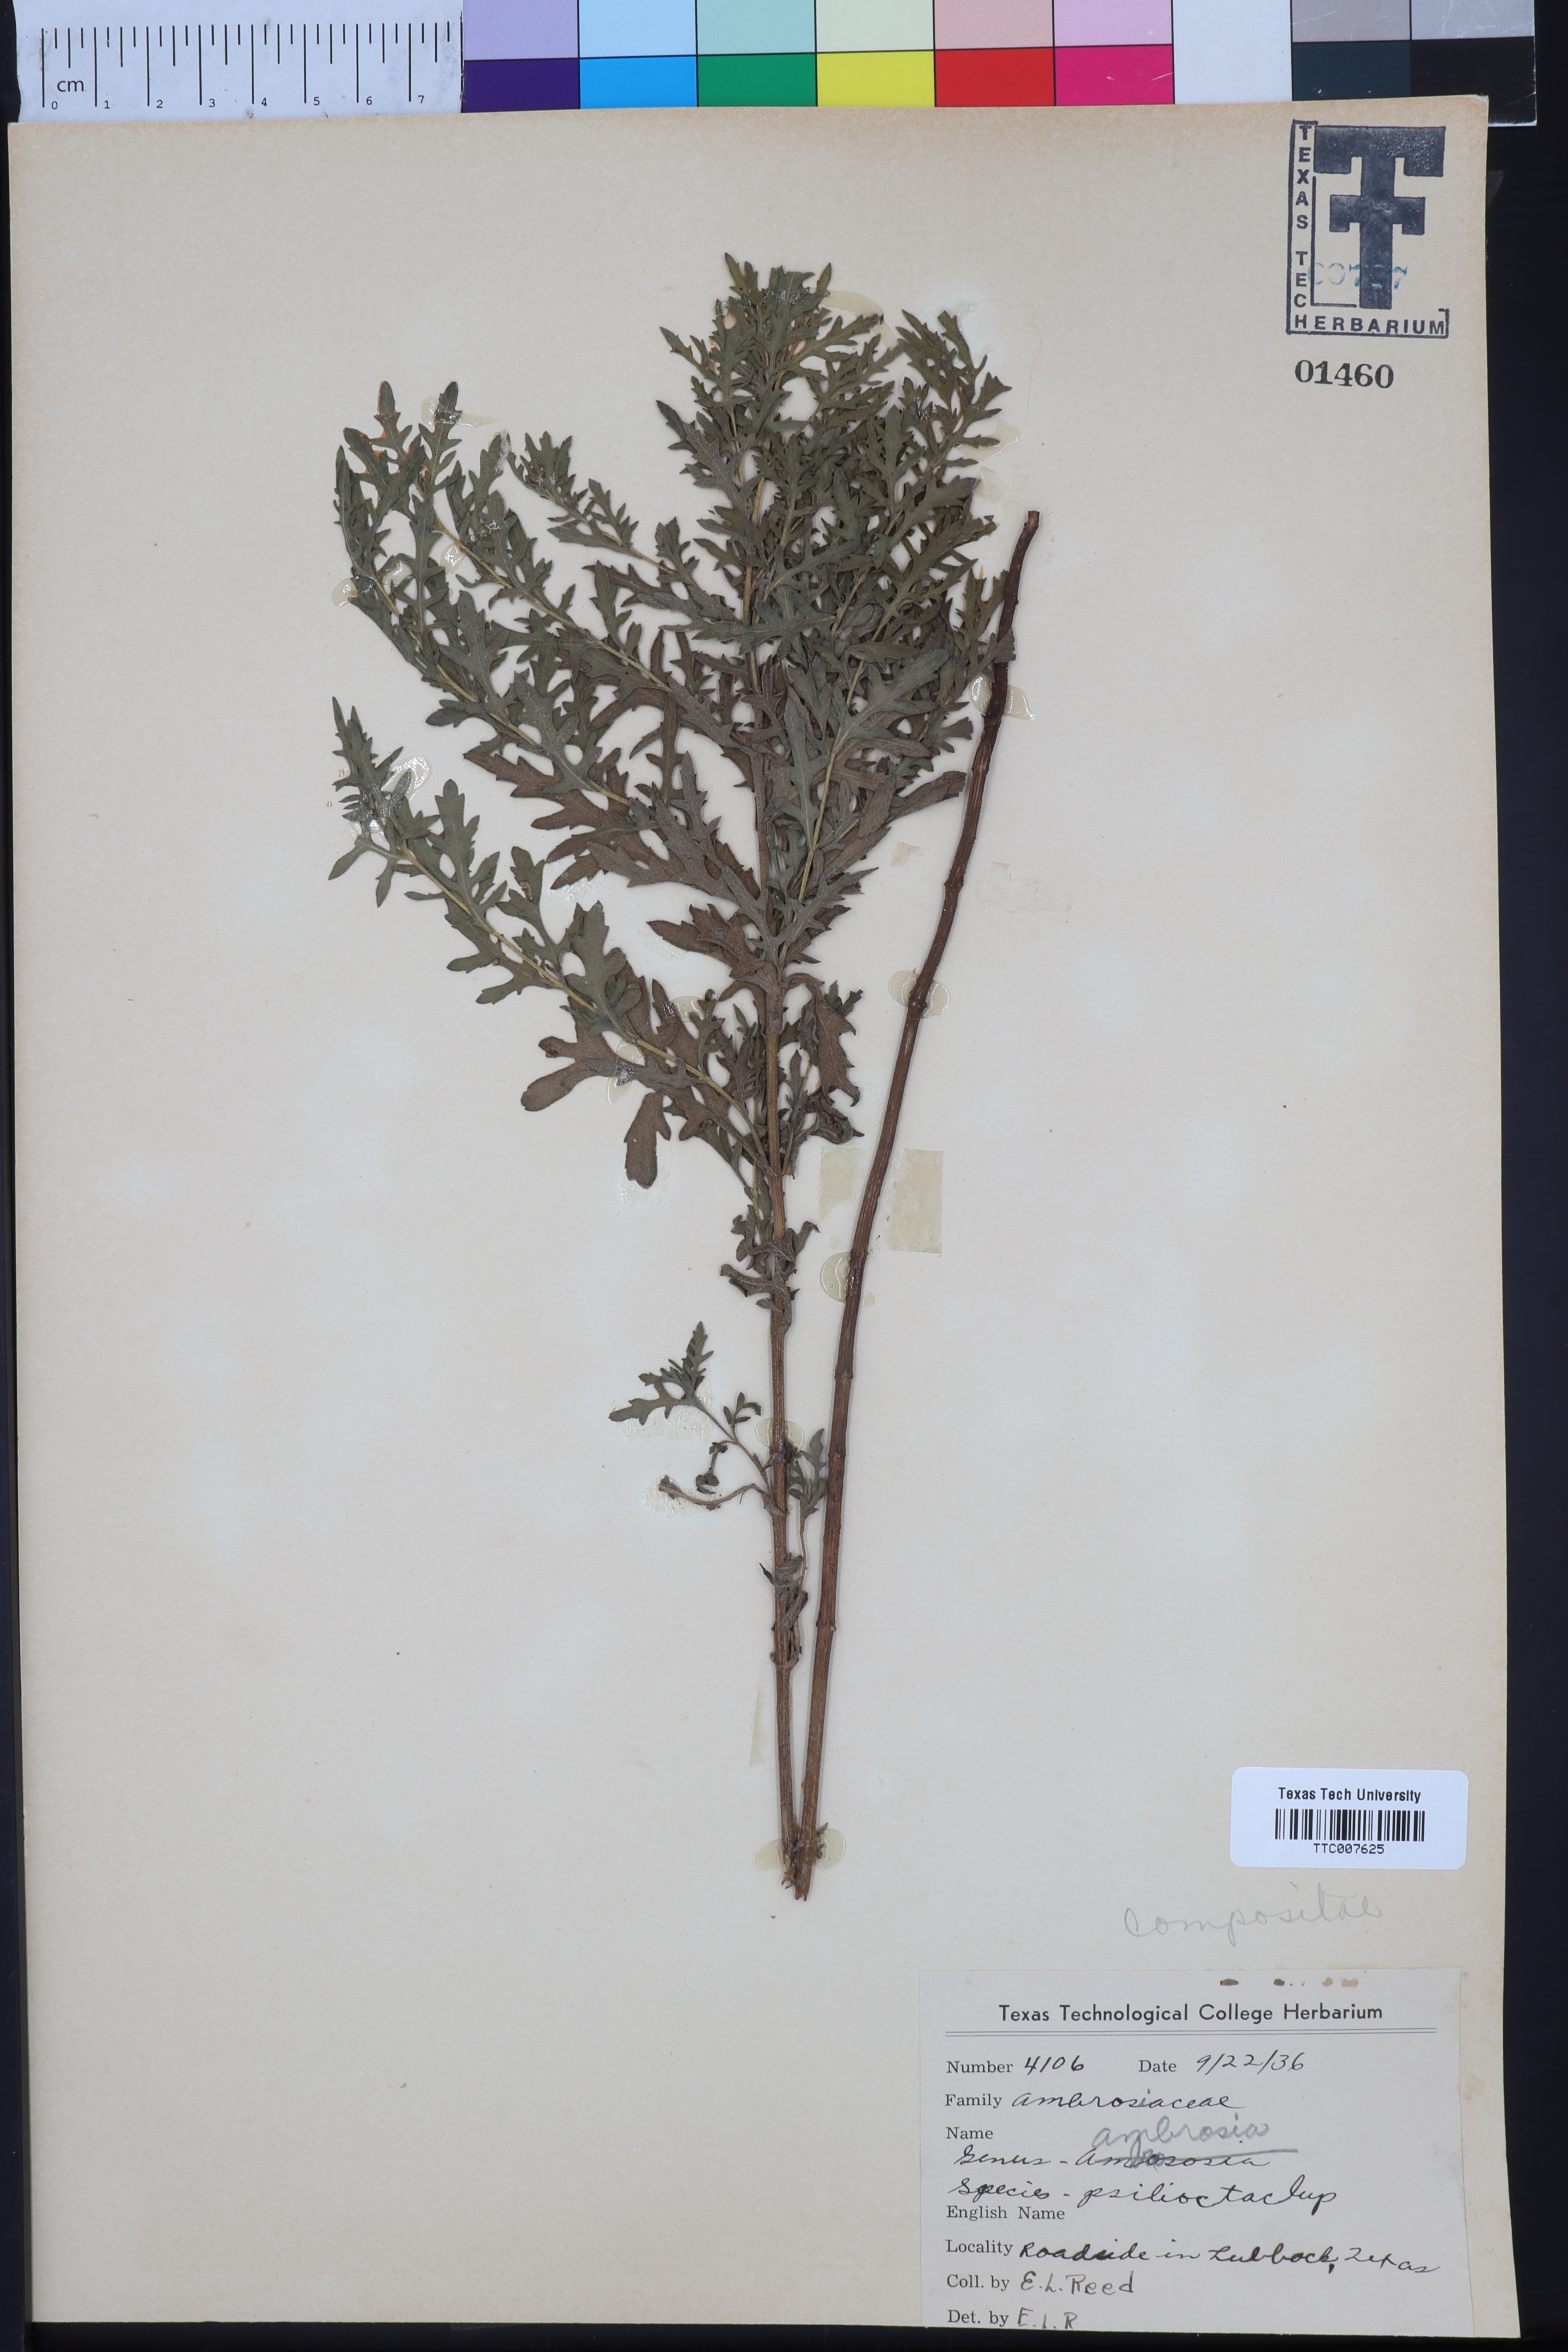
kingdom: Plantae
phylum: Tracheophyta
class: Magnoliopsida
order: Asterales
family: Asteraceae
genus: Ambrosia
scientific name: Ambrosia psilostachya
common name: Perennial ragweed
